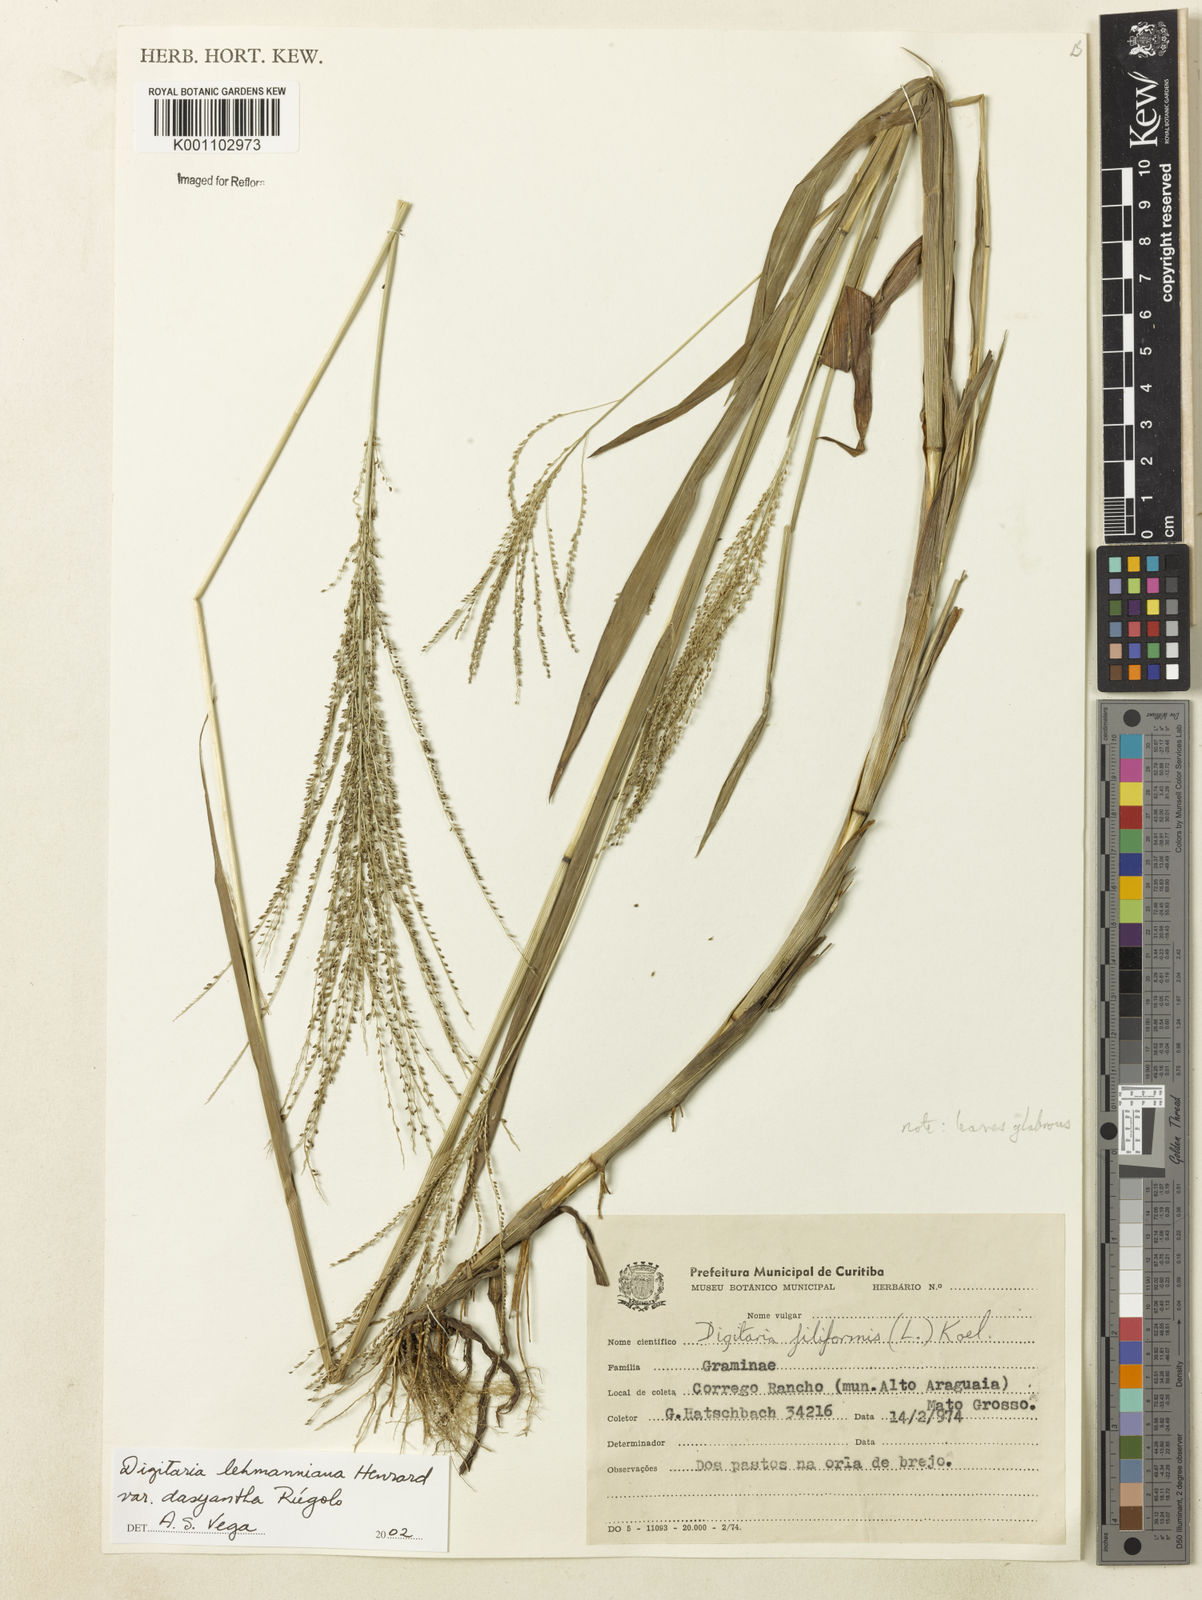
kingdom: Plantae
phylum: Tracheophyta
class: Liliopsida
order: Poales
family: Poaceae
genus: Digitaria
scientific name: Digitaria lehmanniana
